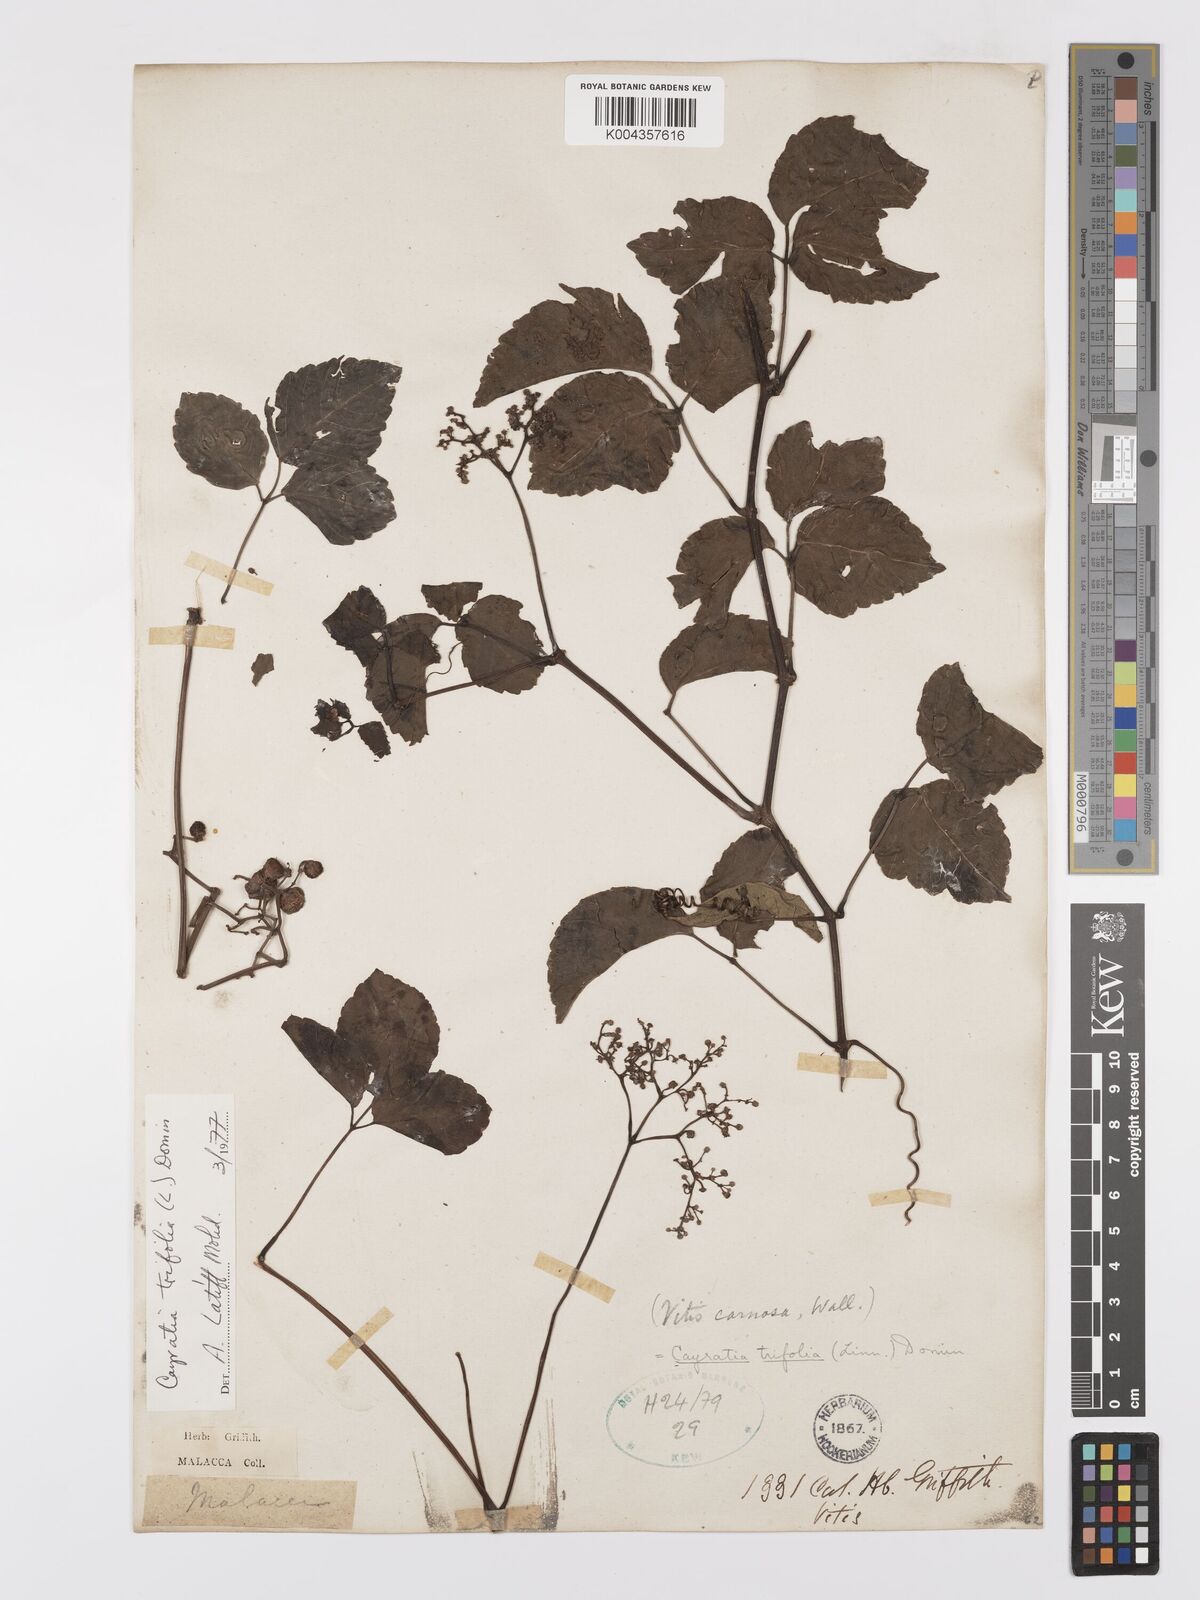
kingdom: Plantae
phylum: Tracheophyta
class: Magnoliopsida
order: Vitales
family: Vitaceae
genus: Causonis
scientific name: Causonis trifolia
